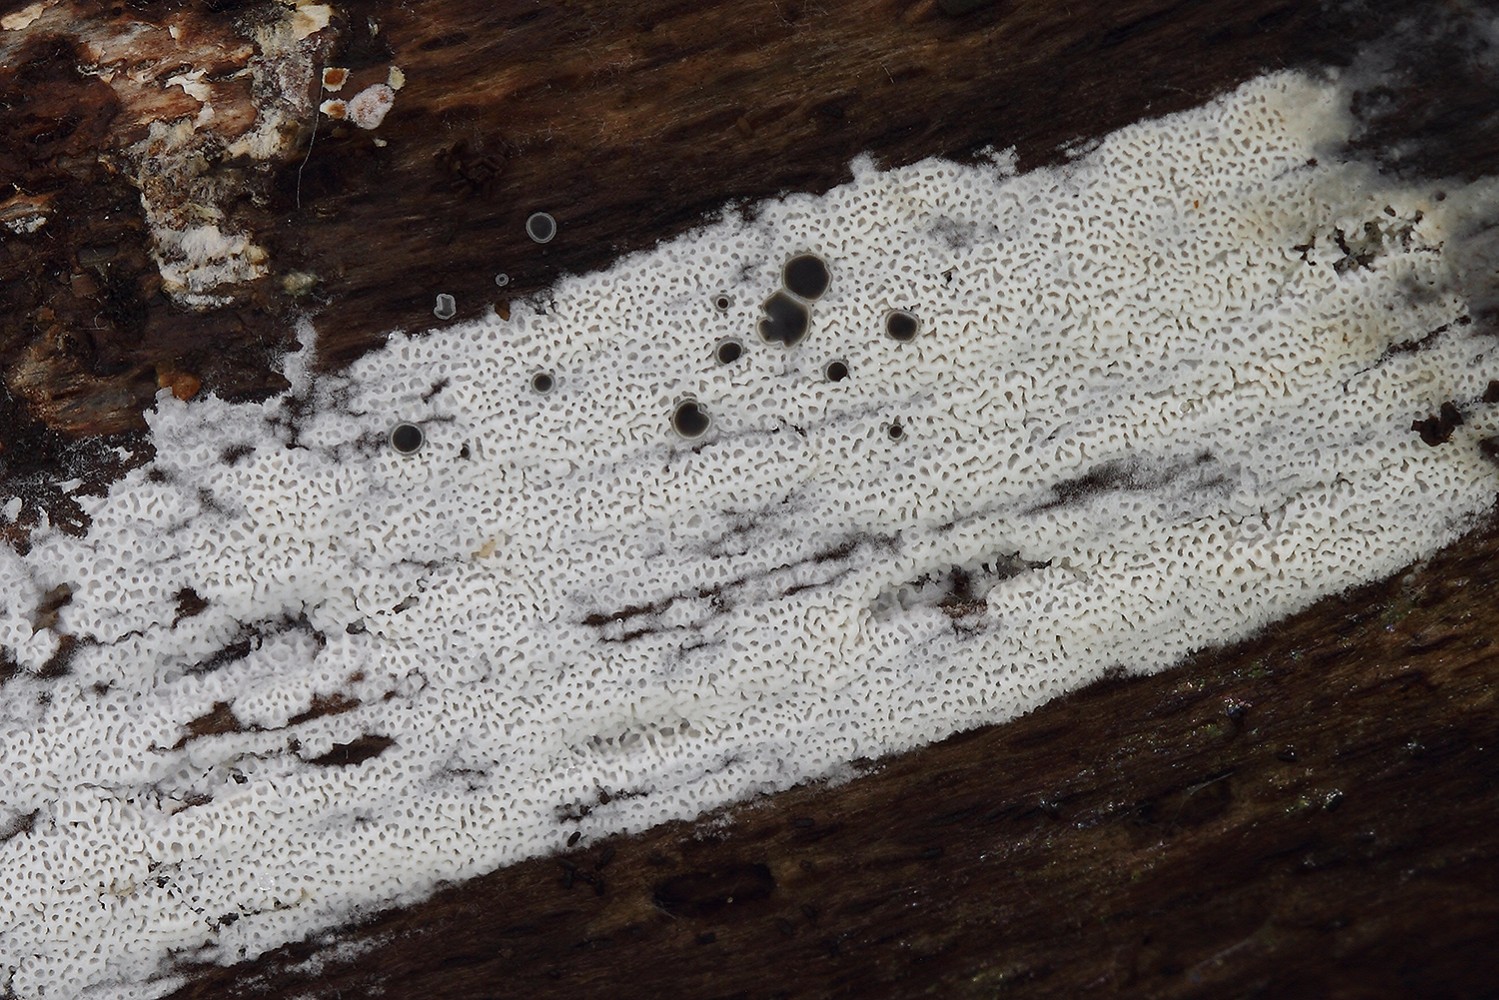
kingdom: Fungi
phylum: Basidiomycota
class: Agaricomycetes
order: Polyporales
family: Irpicaceae
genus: Ceriporia
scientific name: Ceriporia reticulata
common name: netagtig voksporesvamp
